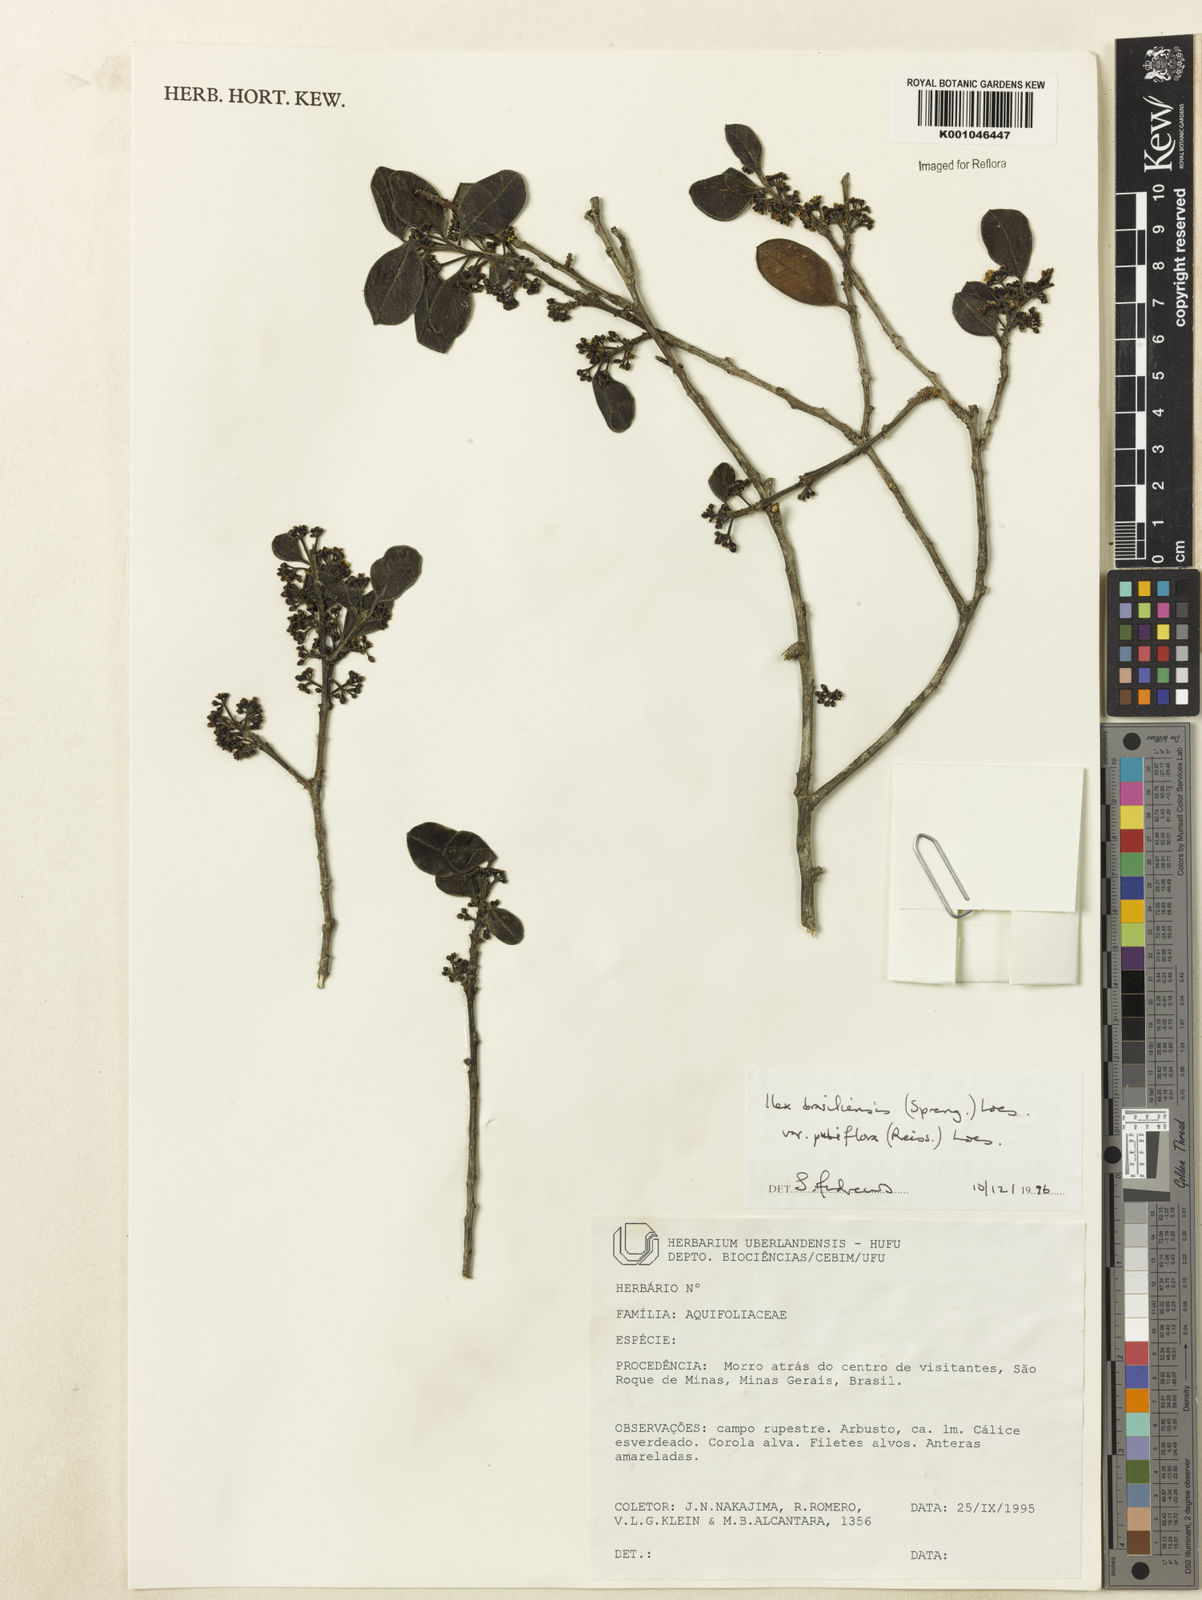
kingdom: Plantae
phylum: Tracheophyta
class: Magnoliopsida
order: Aquifoliales
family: Aquifoliaceae
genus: Ilex
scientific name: Ilex brasiliensis
